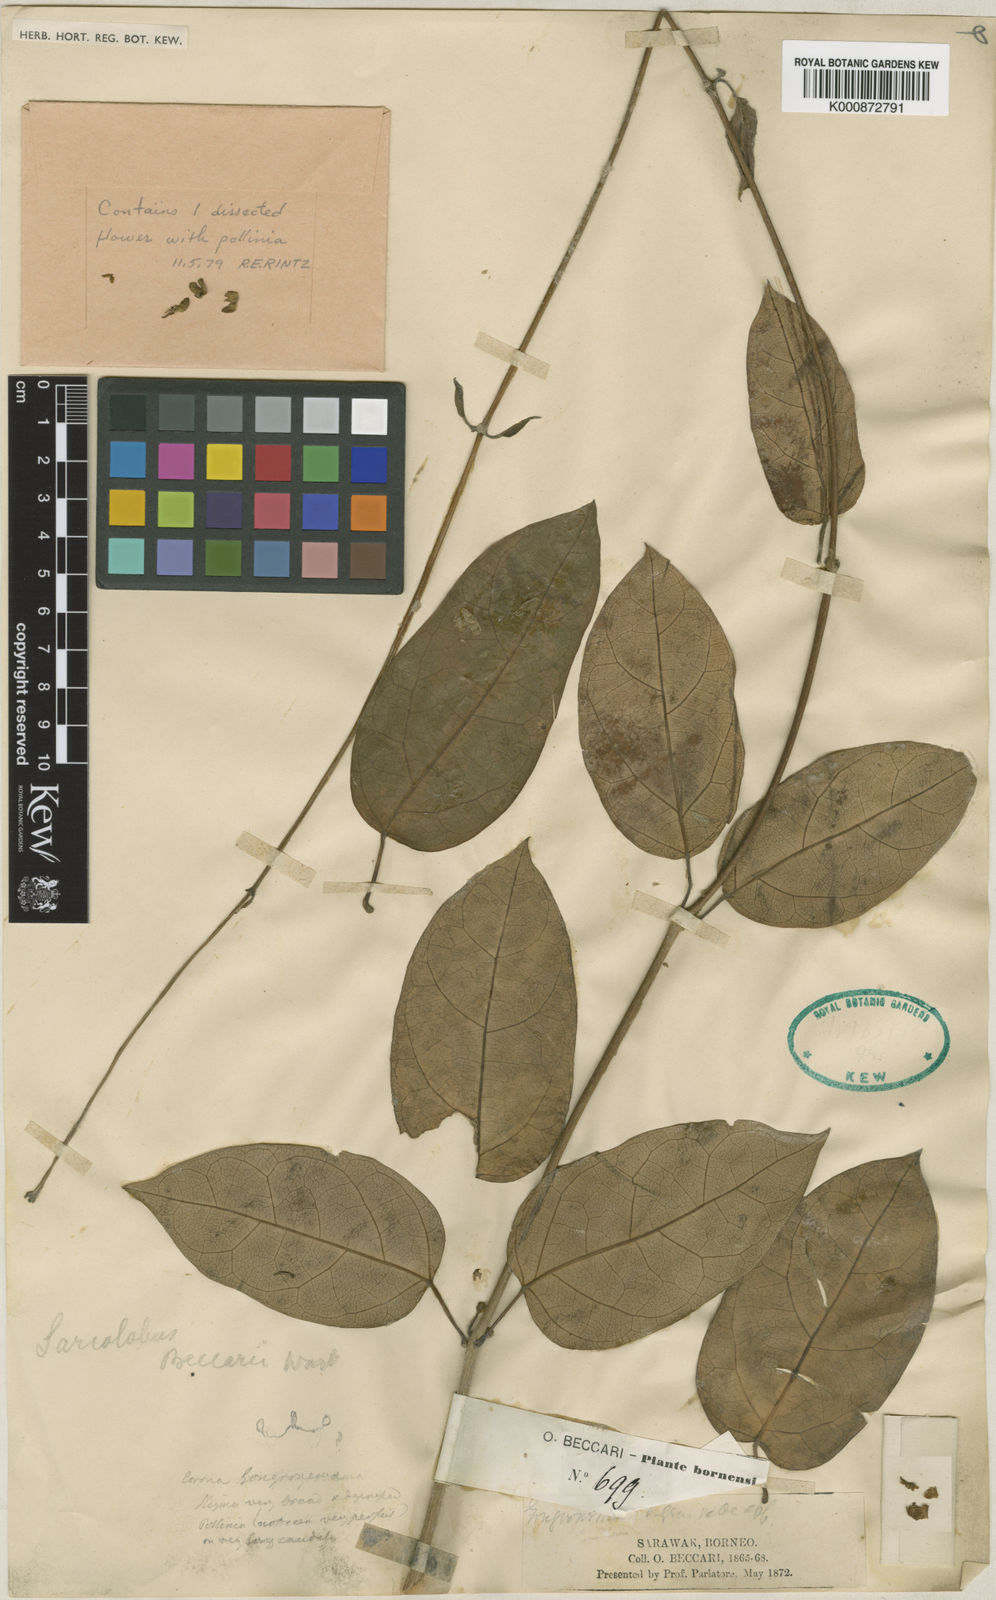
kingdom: Plantae
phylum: Tracheophyta
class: Magnoliopsida
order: Gentianales
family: Apocynaceae
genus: Sarcolobus
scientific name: Sarcolobus globosus
